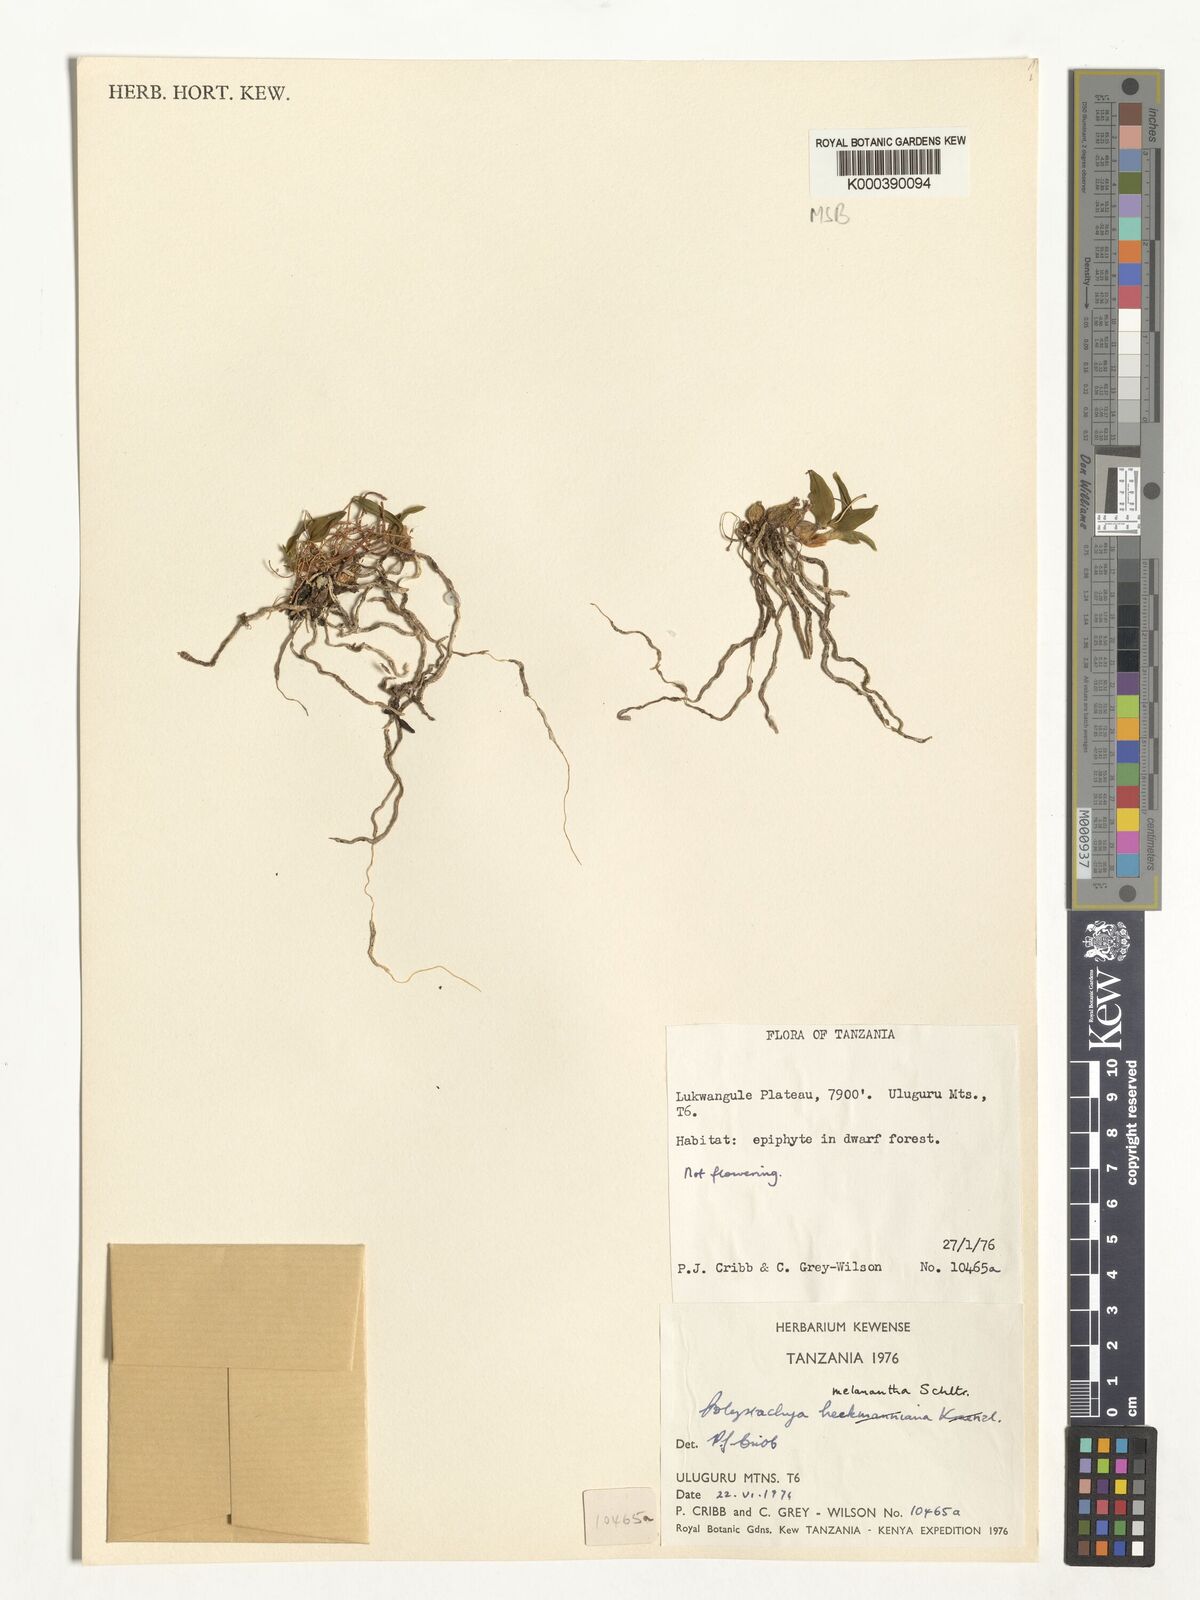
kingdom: Plantae
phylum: Tracheophyta
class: Liliopsida
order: Asparagales
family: Orchidaceae
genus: Polystachya
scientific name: Polystachya melanantha
